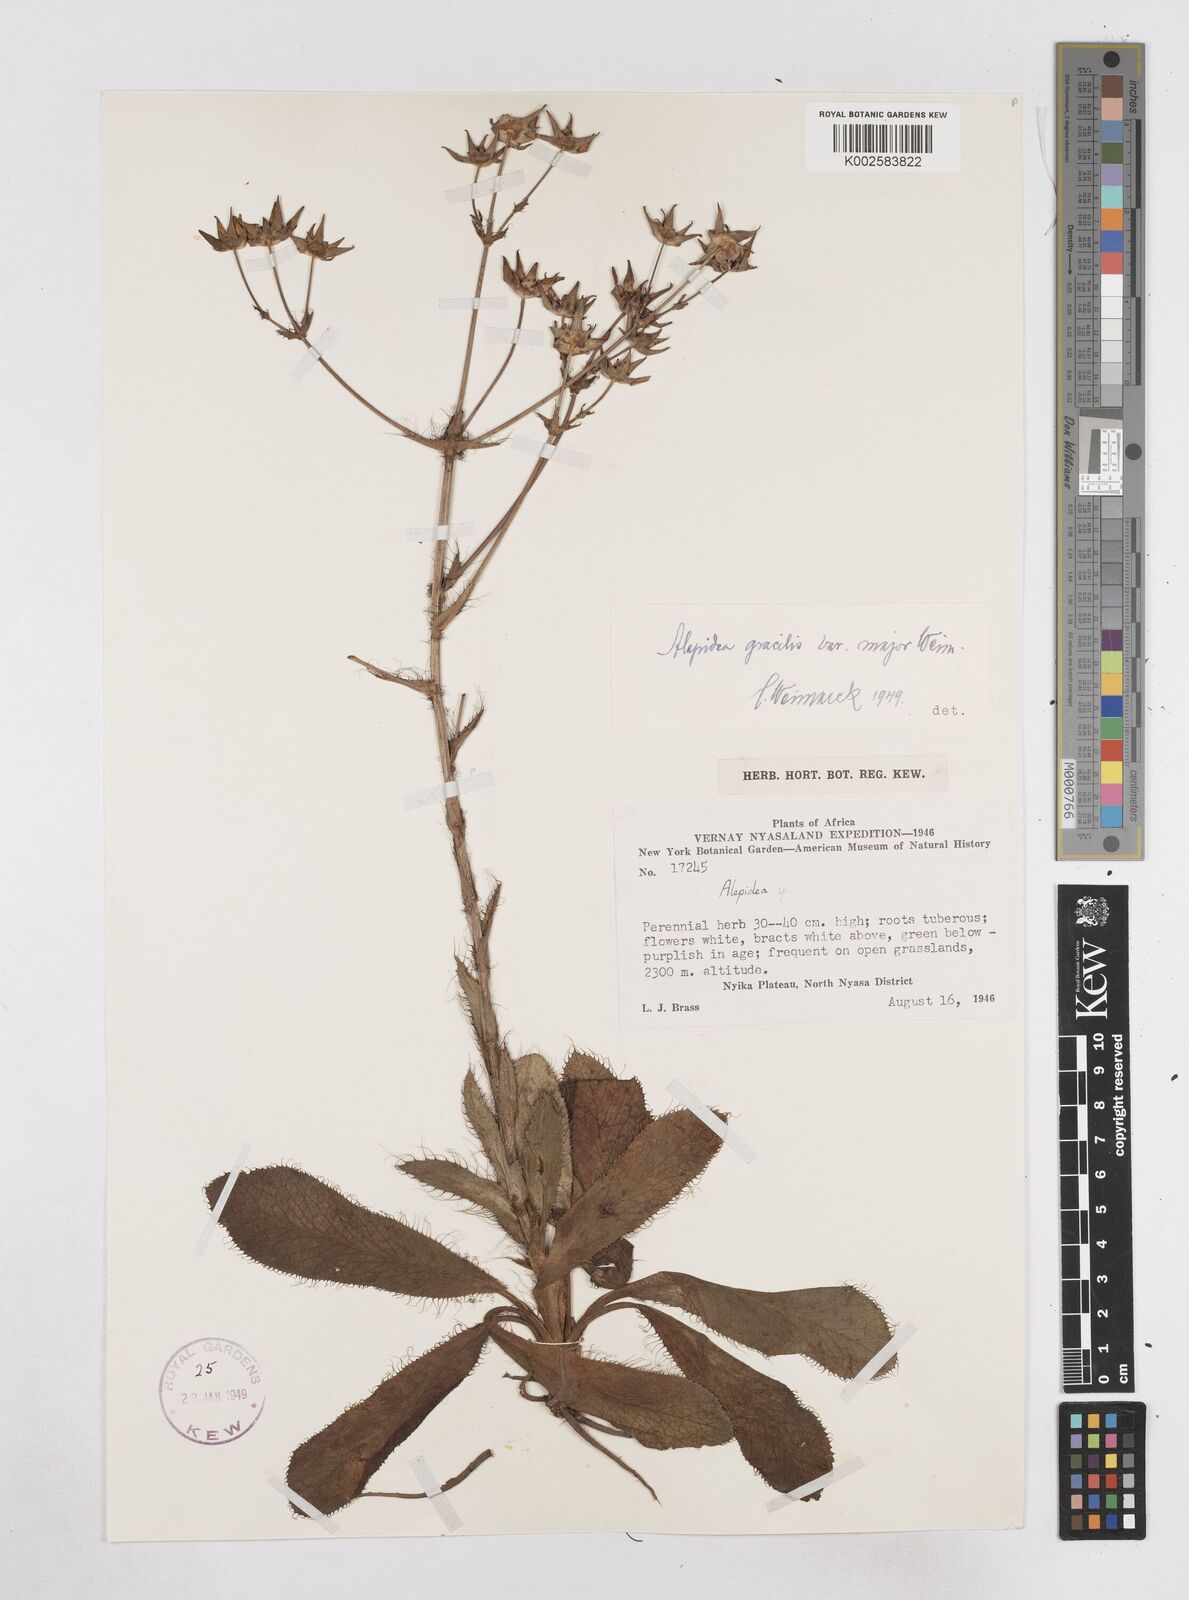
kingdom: Plantae
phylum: Tracheophyta
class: Magnoliopsida
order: Apiales
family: Apiaceae
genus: Alepidea
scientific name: Alepidea peduncularis
